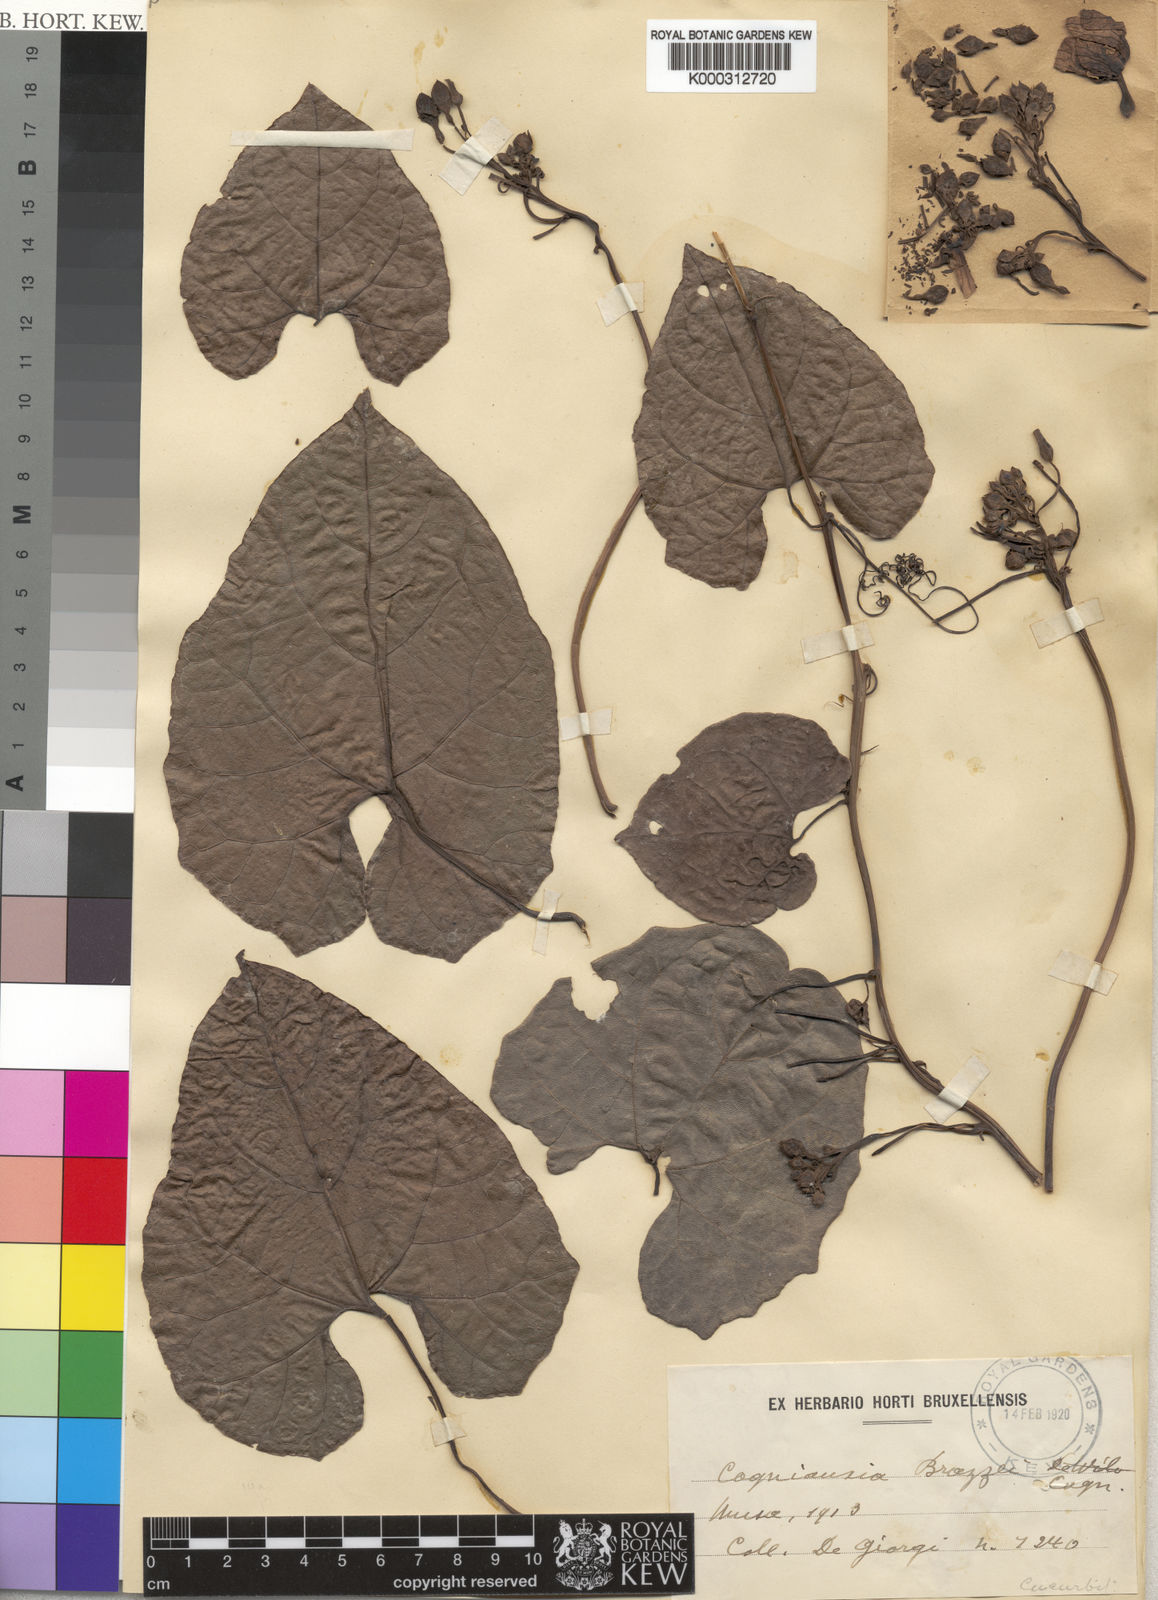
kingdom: Plantae
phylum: Tracheophyta
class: Magnoliopsida
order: Cucurbitales
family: Cucurbitaceae
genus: Cogniauxia
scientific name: Cogniauxia podolaena
